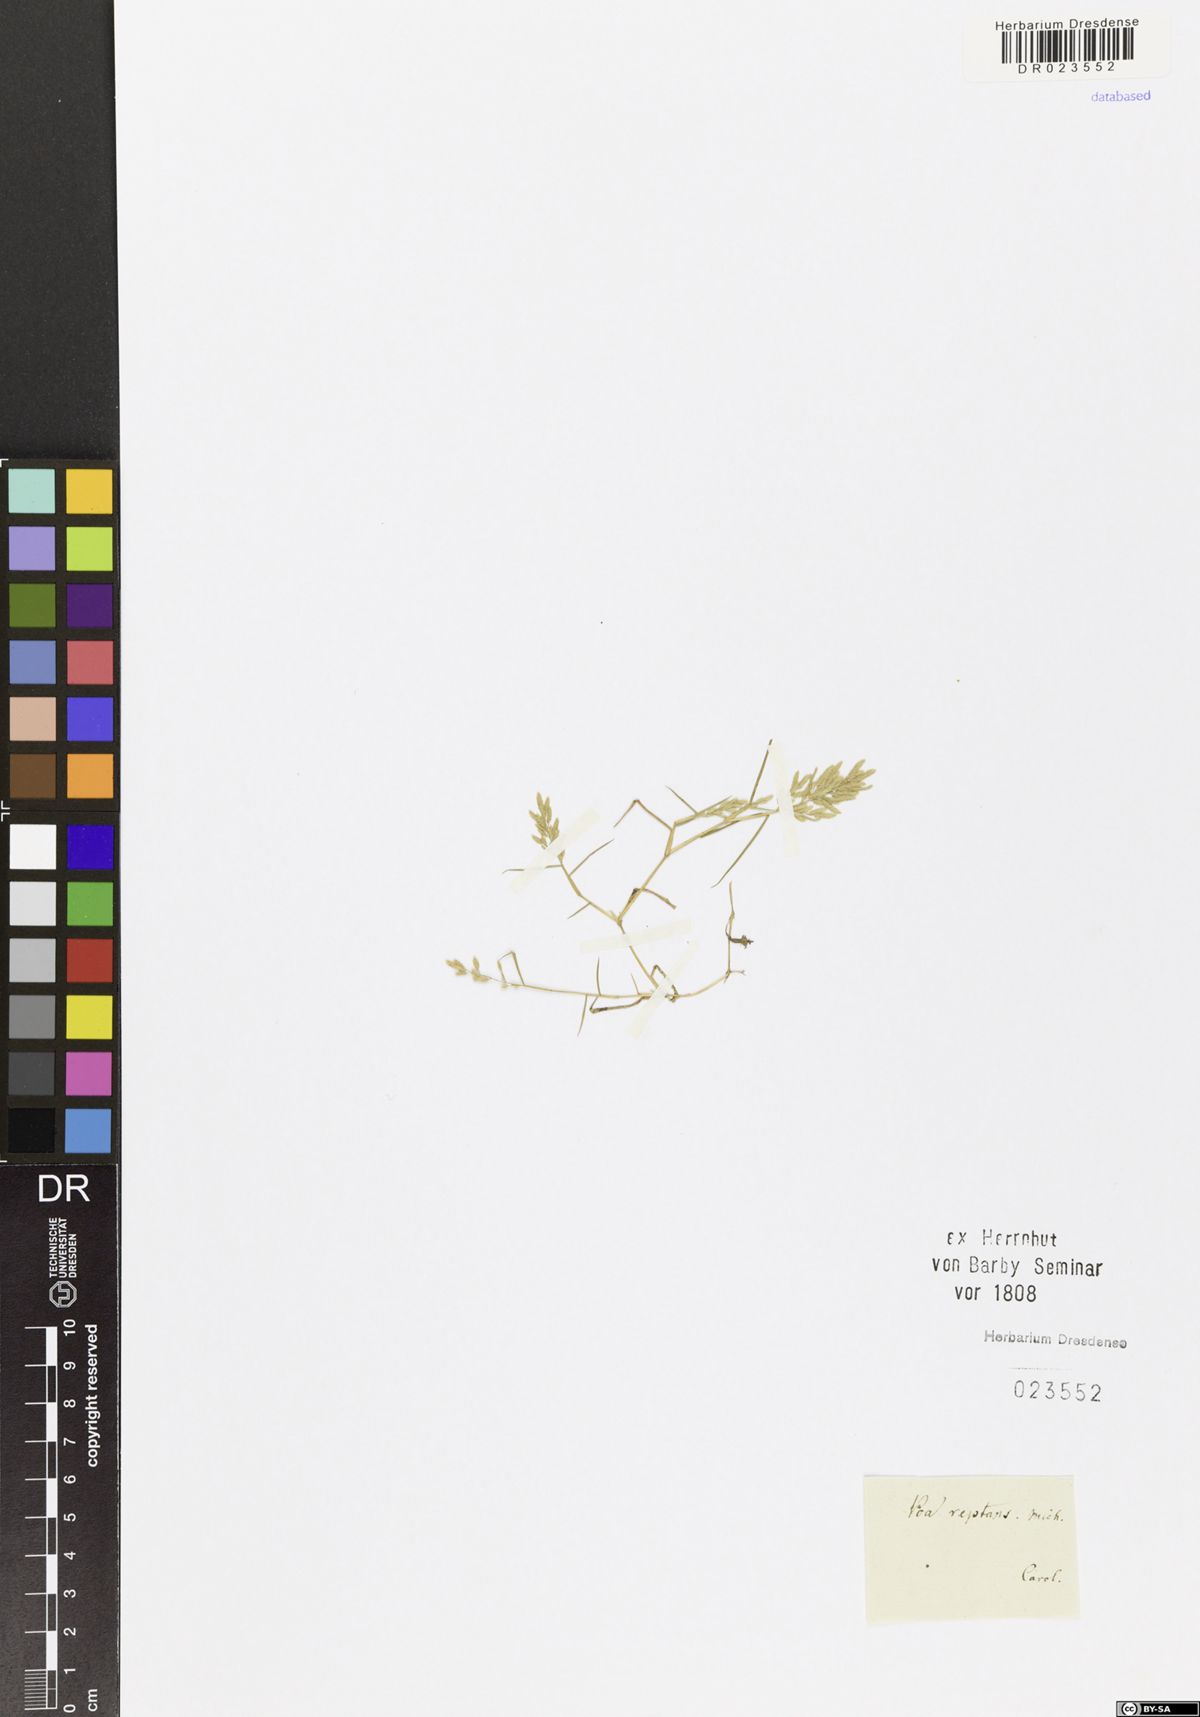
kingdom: Plantae
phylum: Tracheophyta
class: Liliopsida
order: Poales
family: Poaceae
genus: Eragrostis
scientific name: Eragrostis reptans
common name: Creeping love grass
